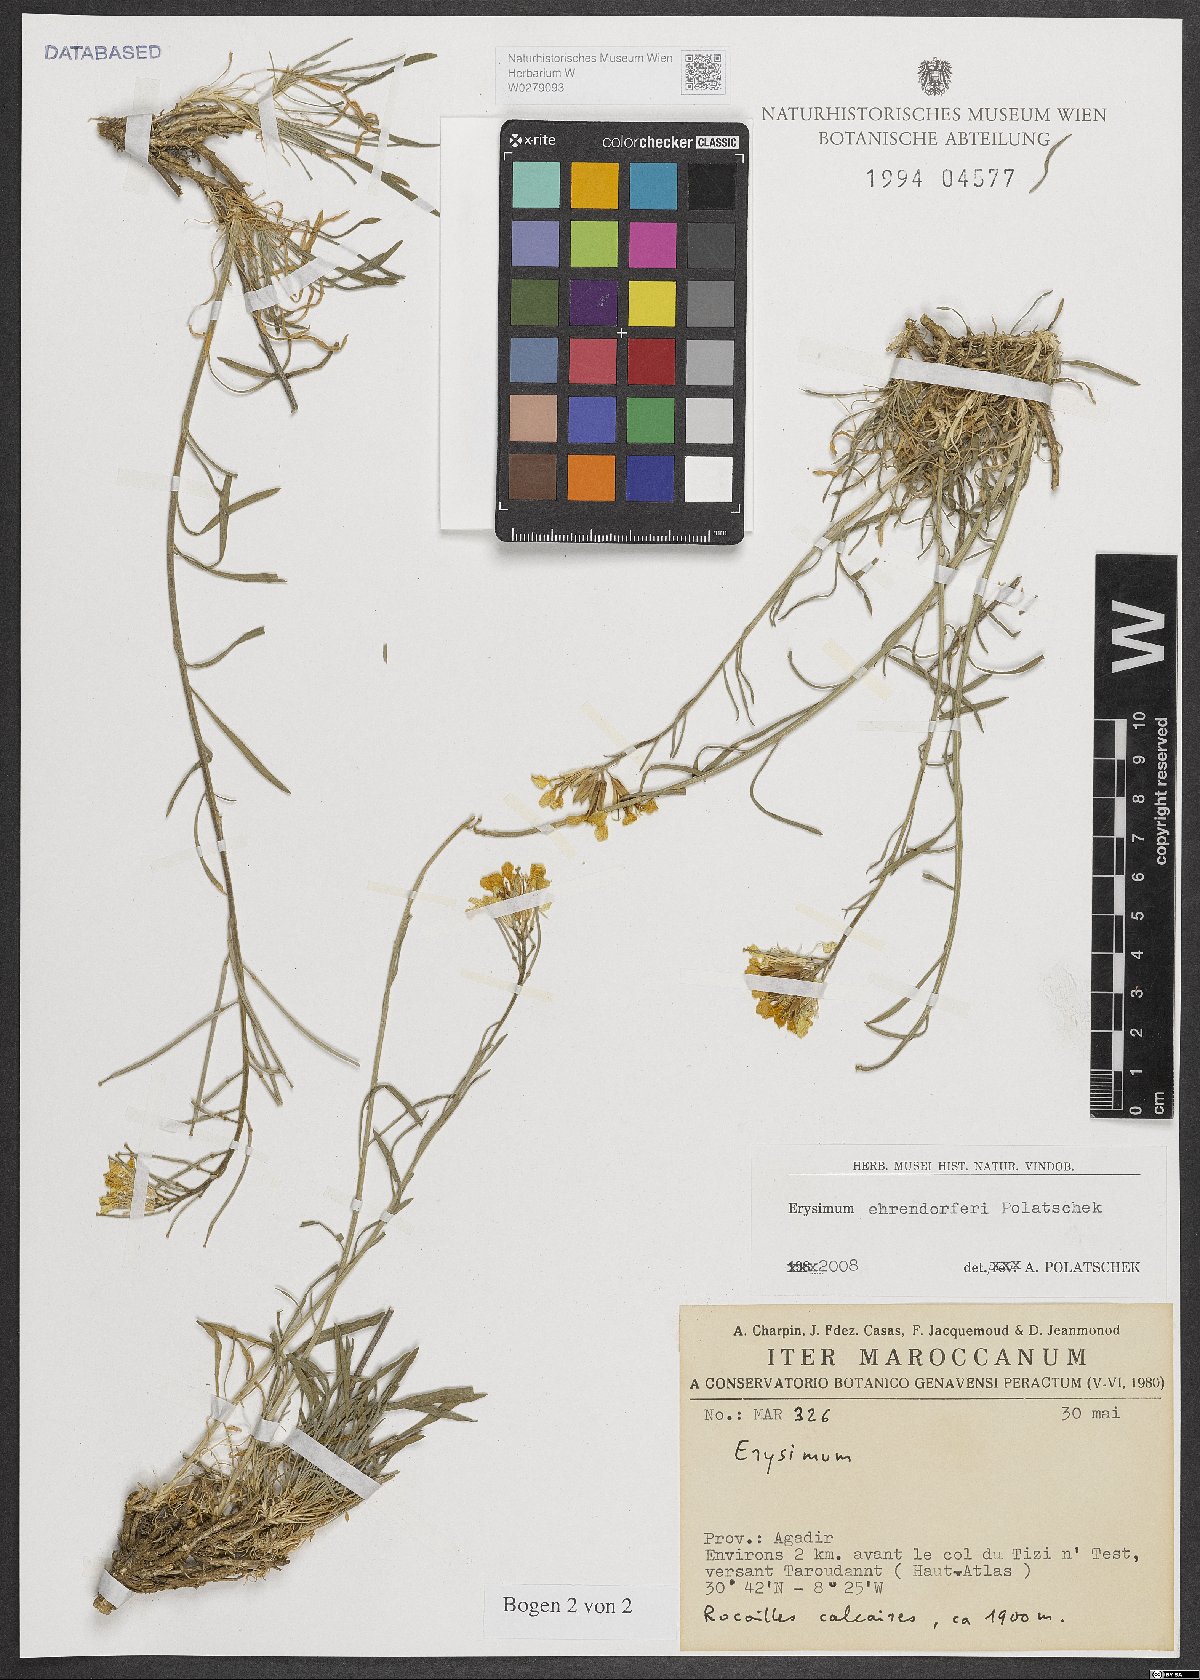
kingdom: Plantae
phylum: Tracheophyta
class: Magnoliopsida
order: Brassicales
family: Brassicaceae
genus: Erysimum
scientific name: Erysimum ehrendorferi
